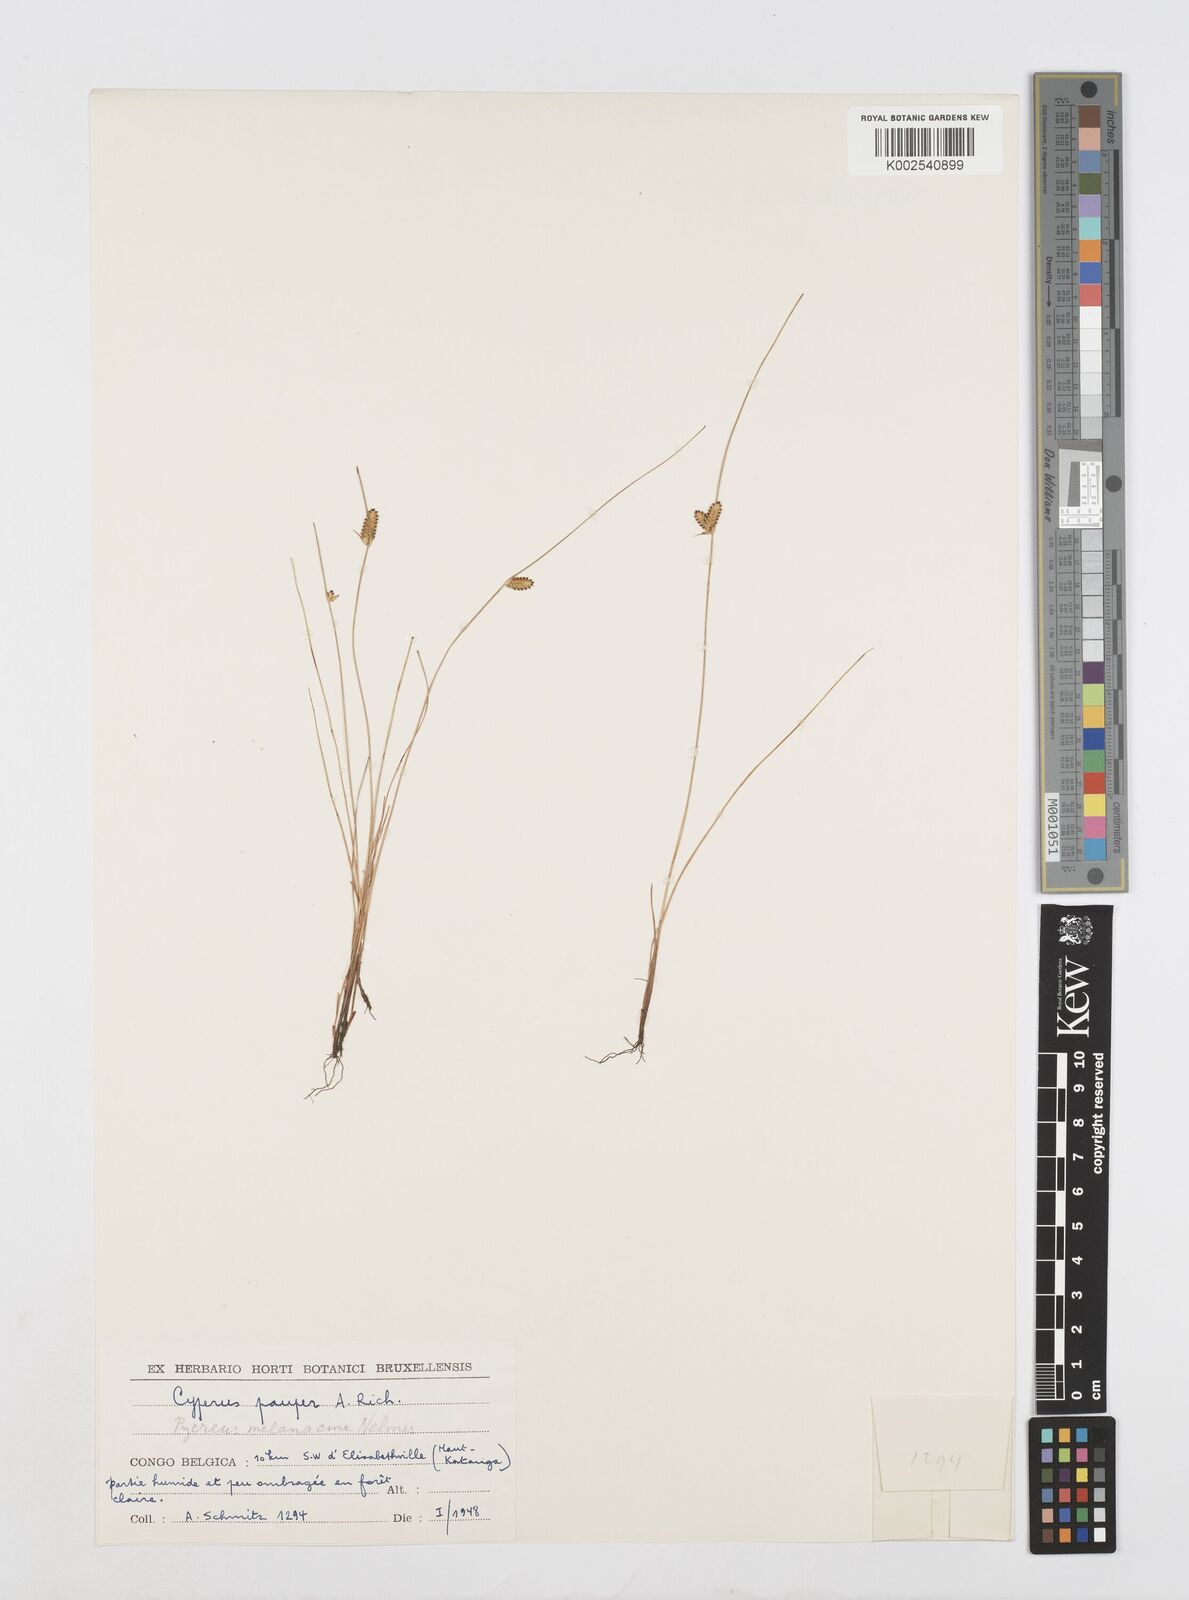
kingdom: Plantae
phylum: Tracheophyta
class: Liliopsida
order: Poales
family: Cyperaceae
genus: Cyperus
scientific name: Cyperus melanacme
